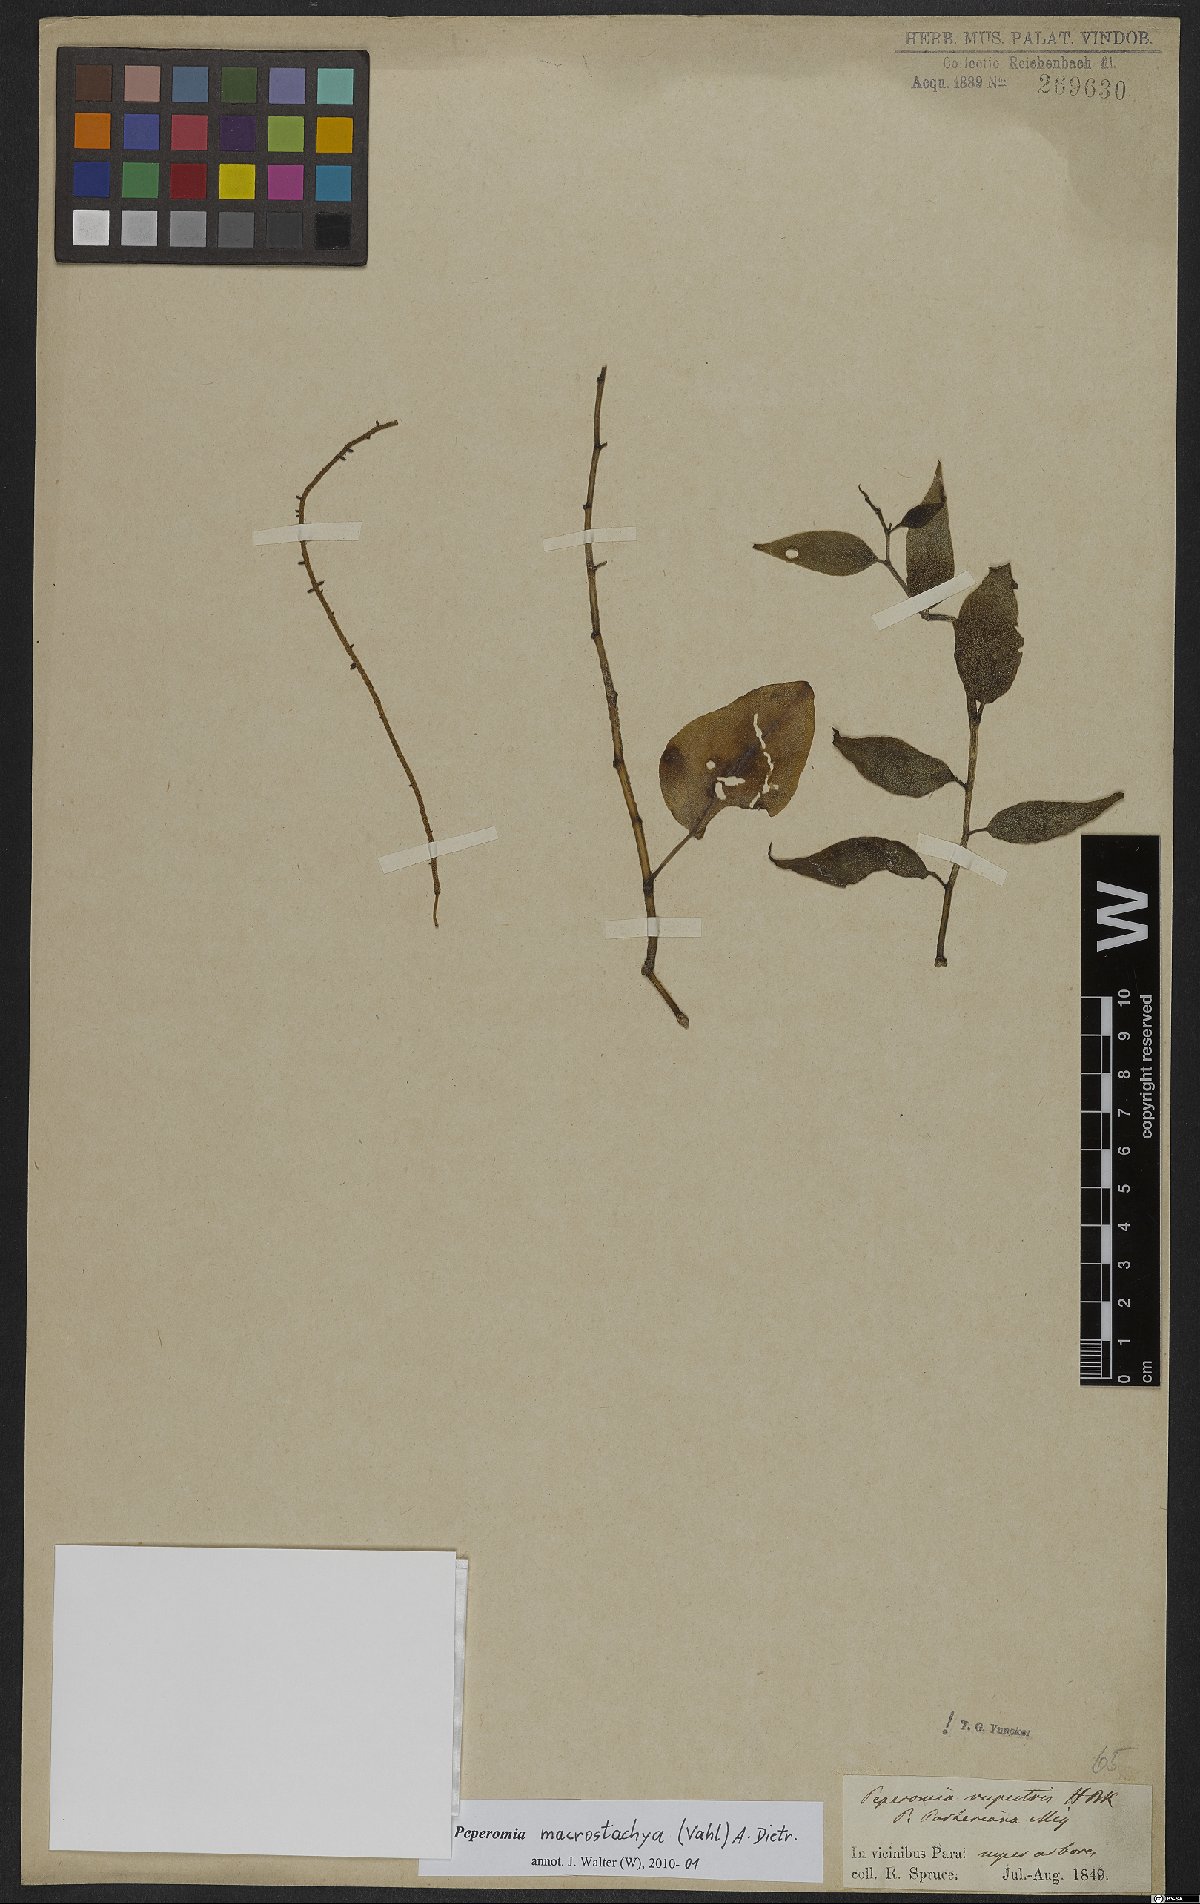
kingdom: Plantae
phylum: Tracheophyta
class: Magnoliopsida
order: Piperales
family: Piperaceae
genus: Peperomia
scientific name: Peperomia macrostachyos
